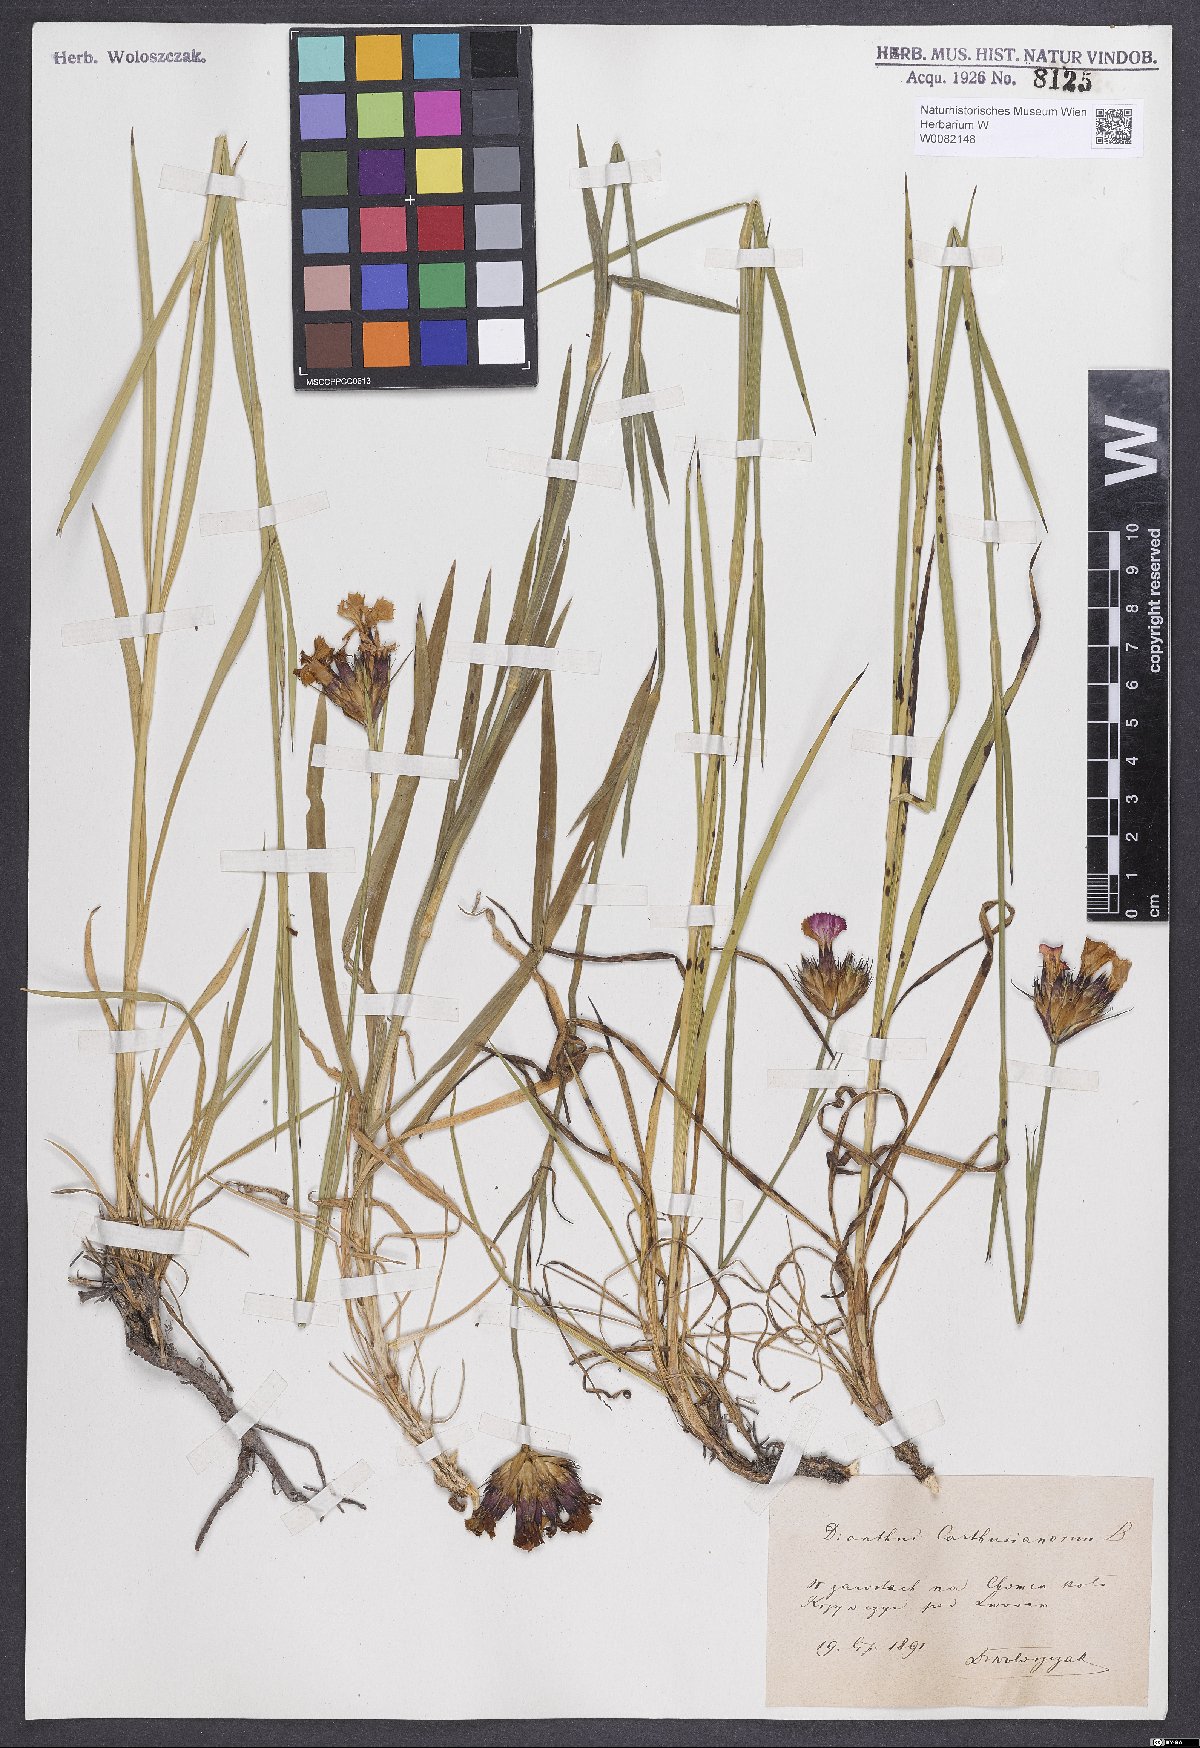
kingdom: Plantae
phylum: Tracheophyta
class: Magnoliopsida
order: Caryophyllales
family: Caryophyllaceae
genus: Dianthus
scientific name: Dianthus carthusianorum
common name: Carthusian pink
